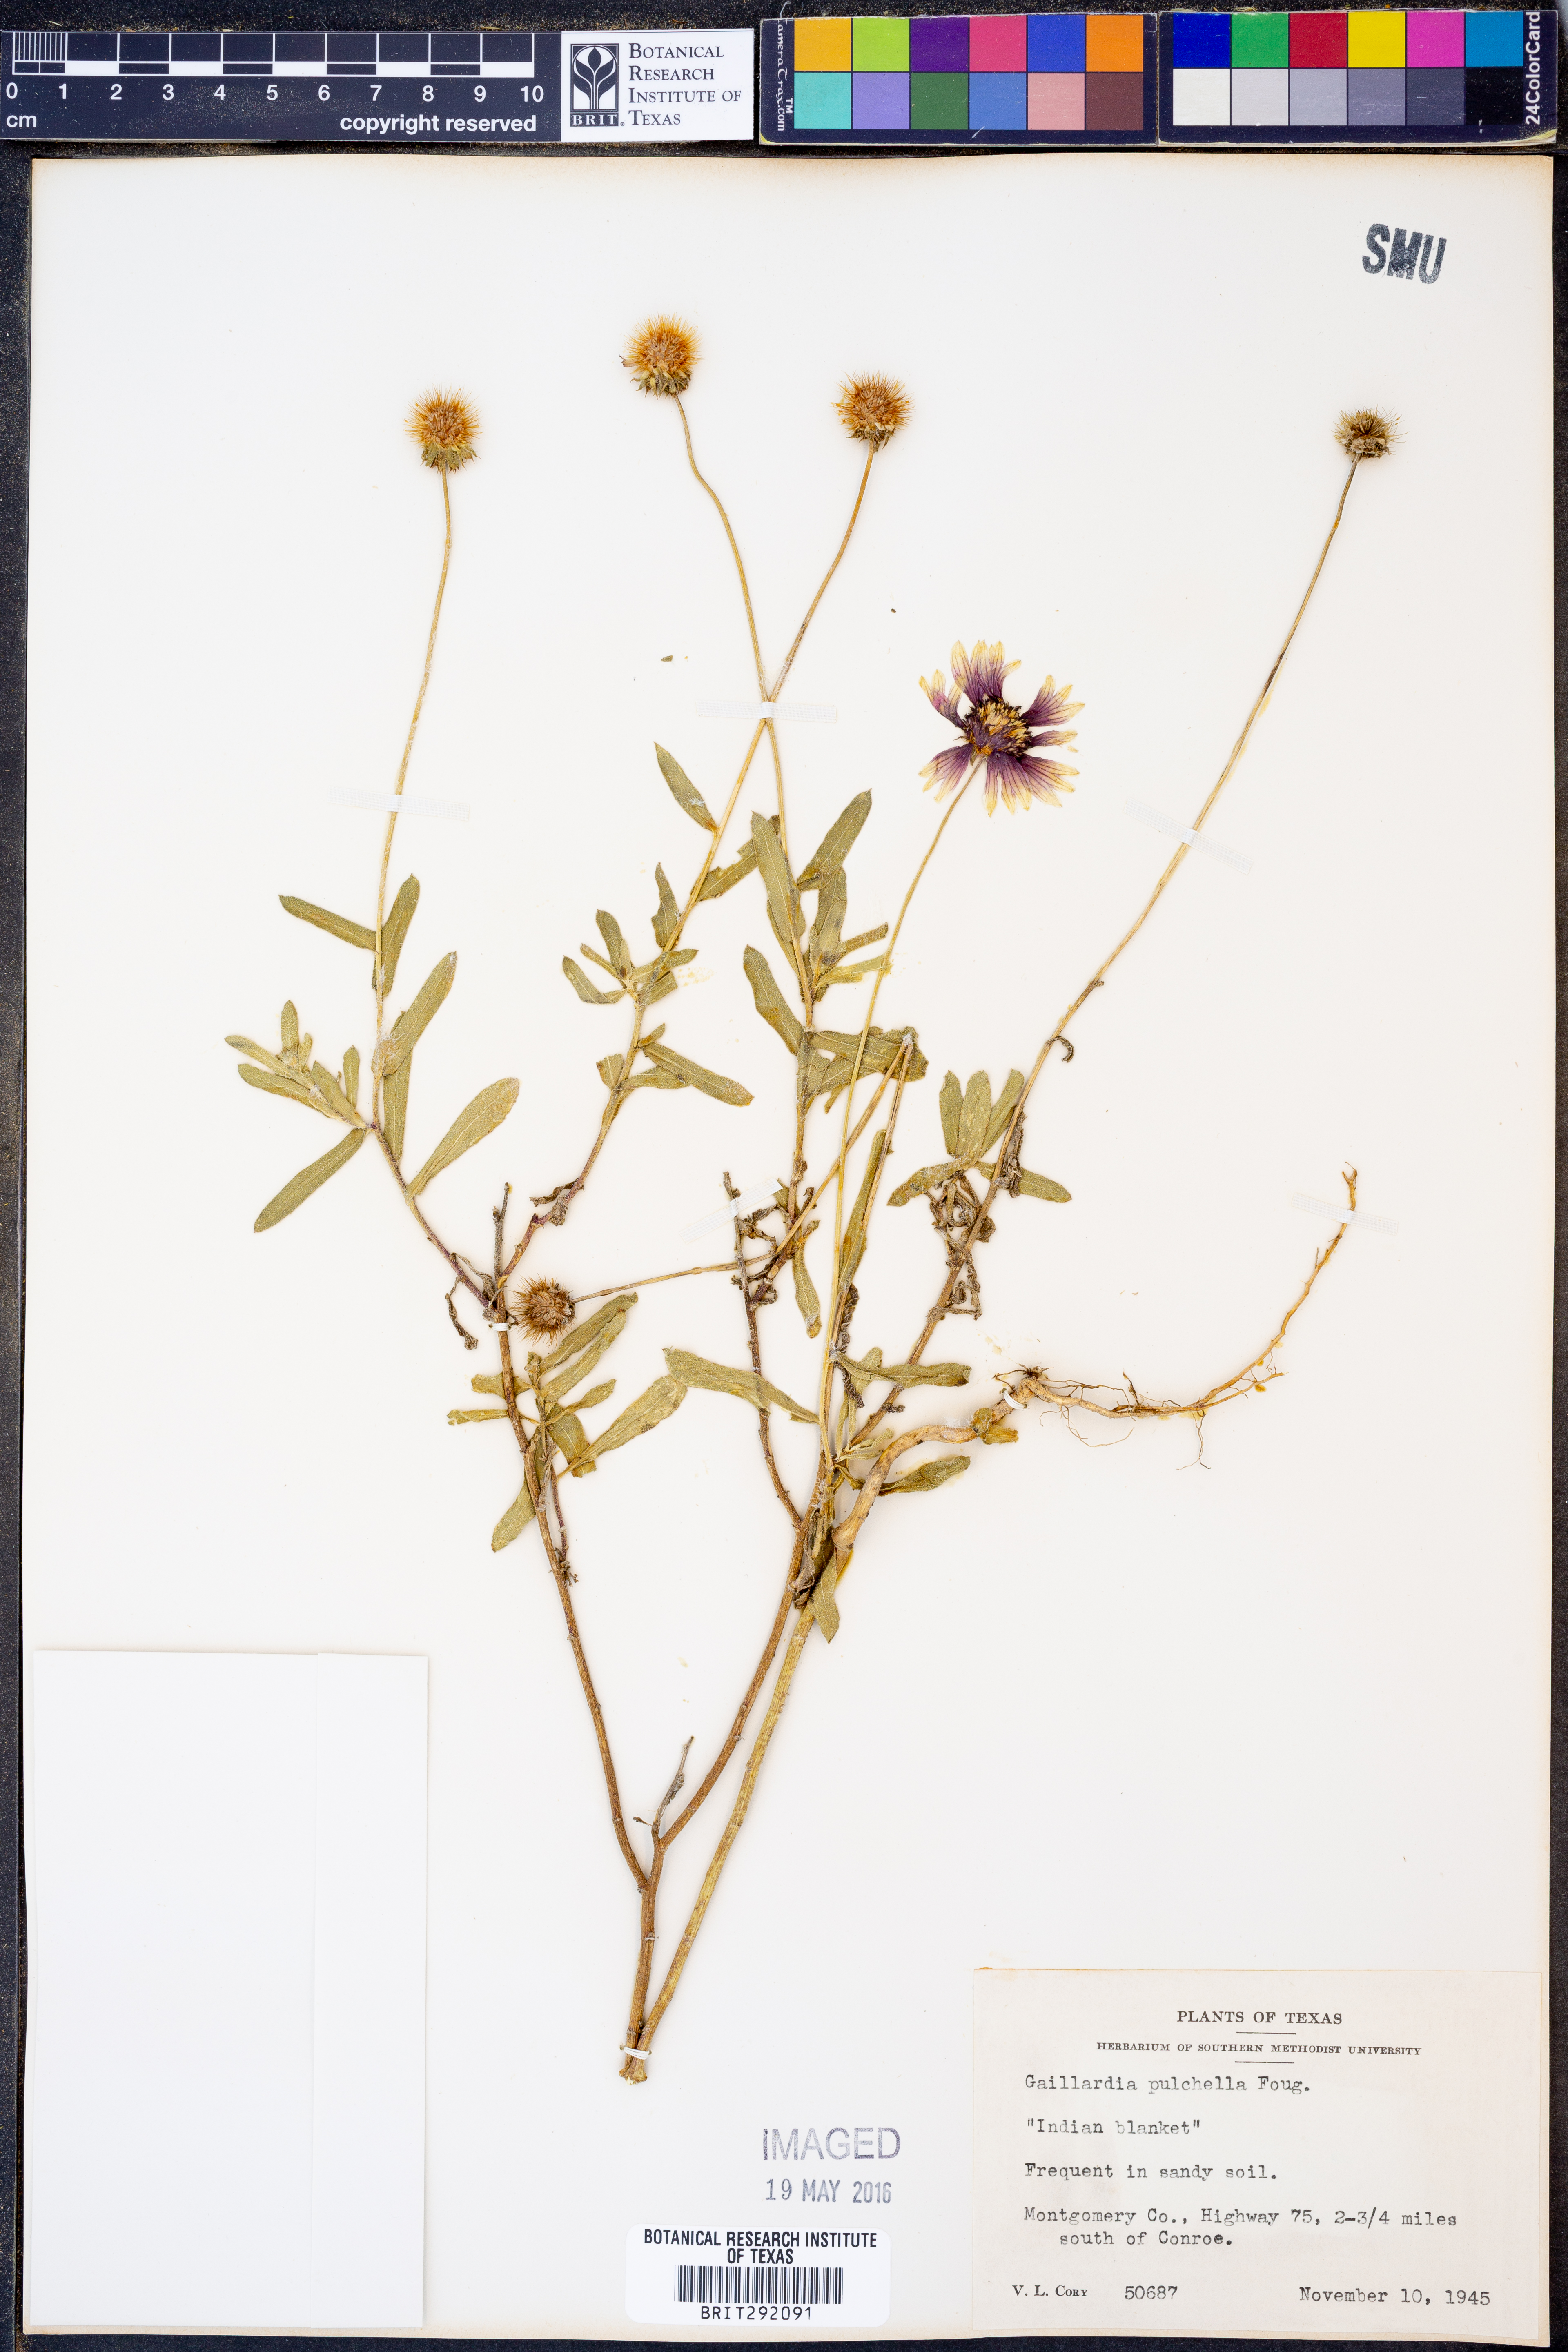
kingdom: Plantae
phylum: Tracheophyta
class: Magnoliopsida
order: Asterales
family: Asteraceae
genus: Gaillardia
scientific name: Gaillardia pulchella
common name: Firewheel
